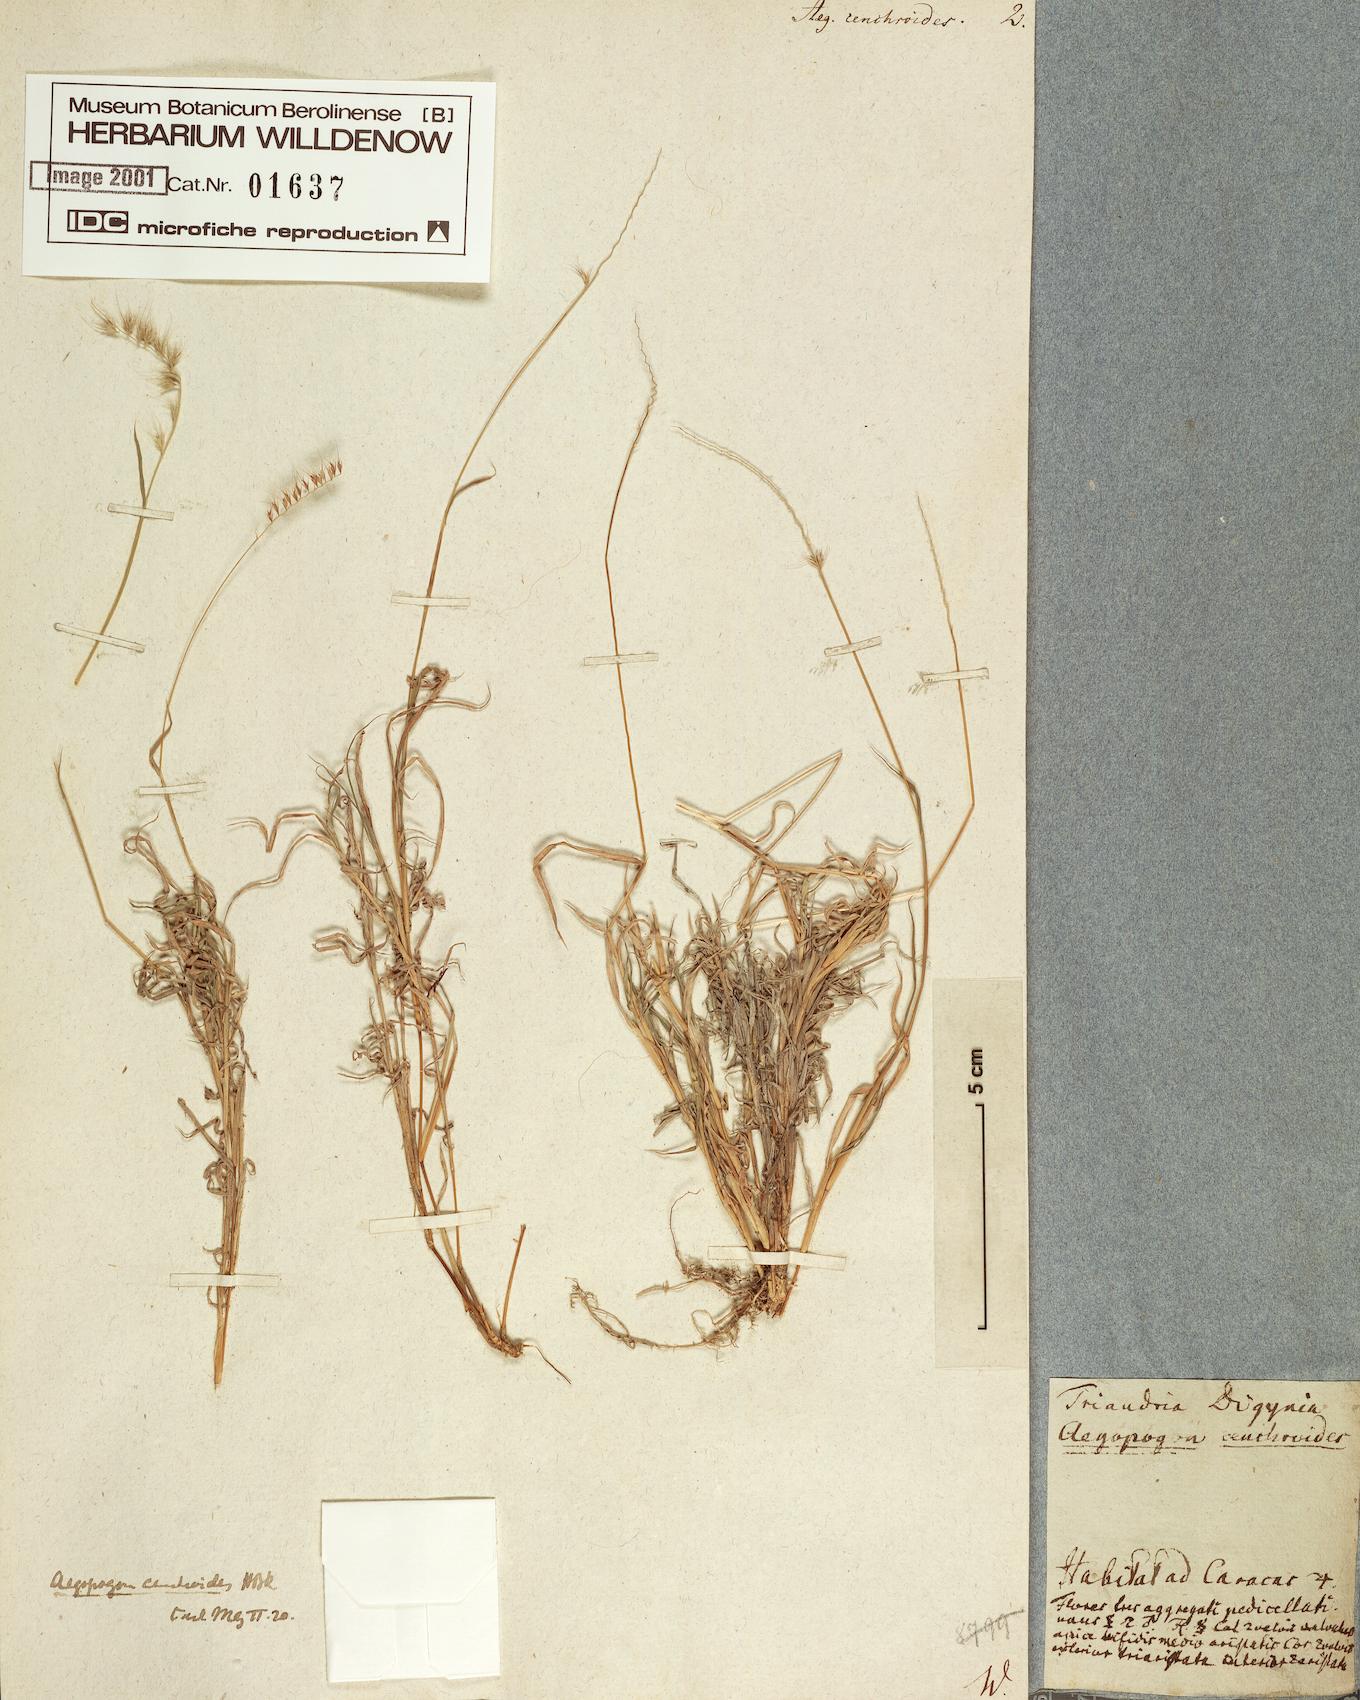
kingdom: Plantae
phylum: Tracheophyta
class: Liliopsida
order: Poales
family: Poaceae
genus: Muhlenbergia
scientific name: Muhlenbergia cenchroides
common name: Relaxgrass
